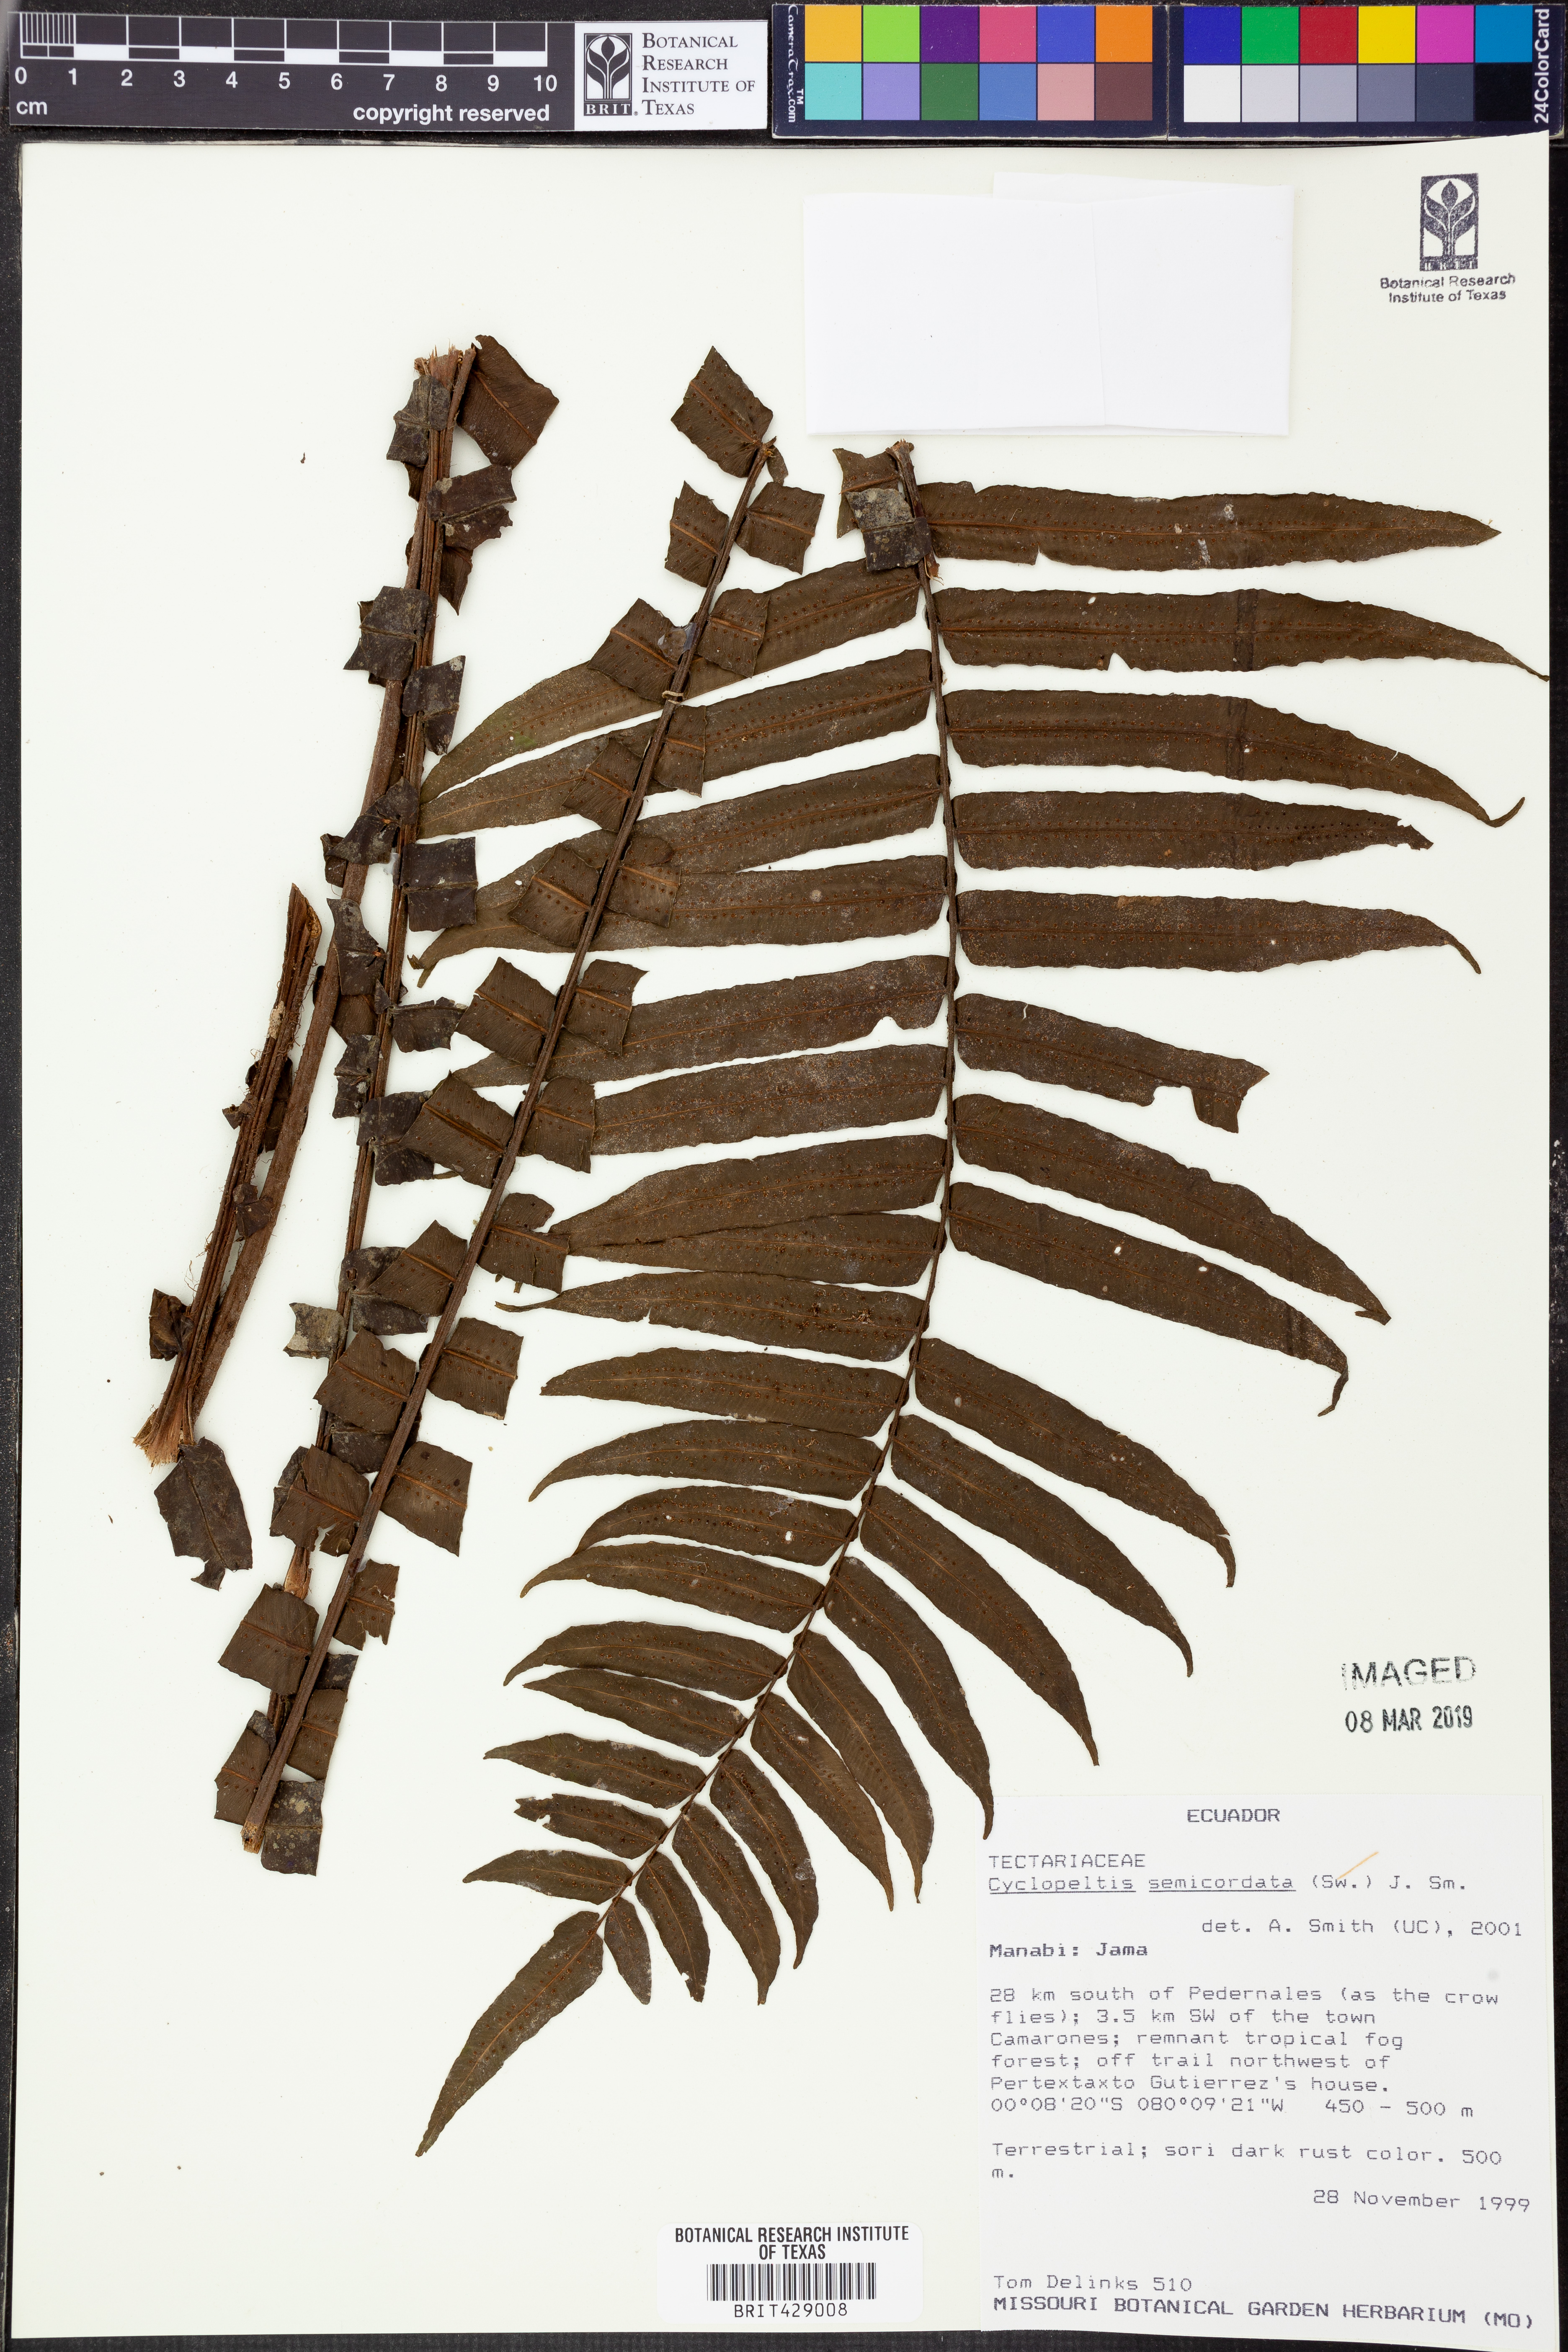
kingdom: Plantae
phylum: Tracheophyta
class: Polypodiopsida
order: Polypodiales
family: Lomariopsidaceae
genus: Cyclopeltis
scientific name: Cyclopeltis semicordata
